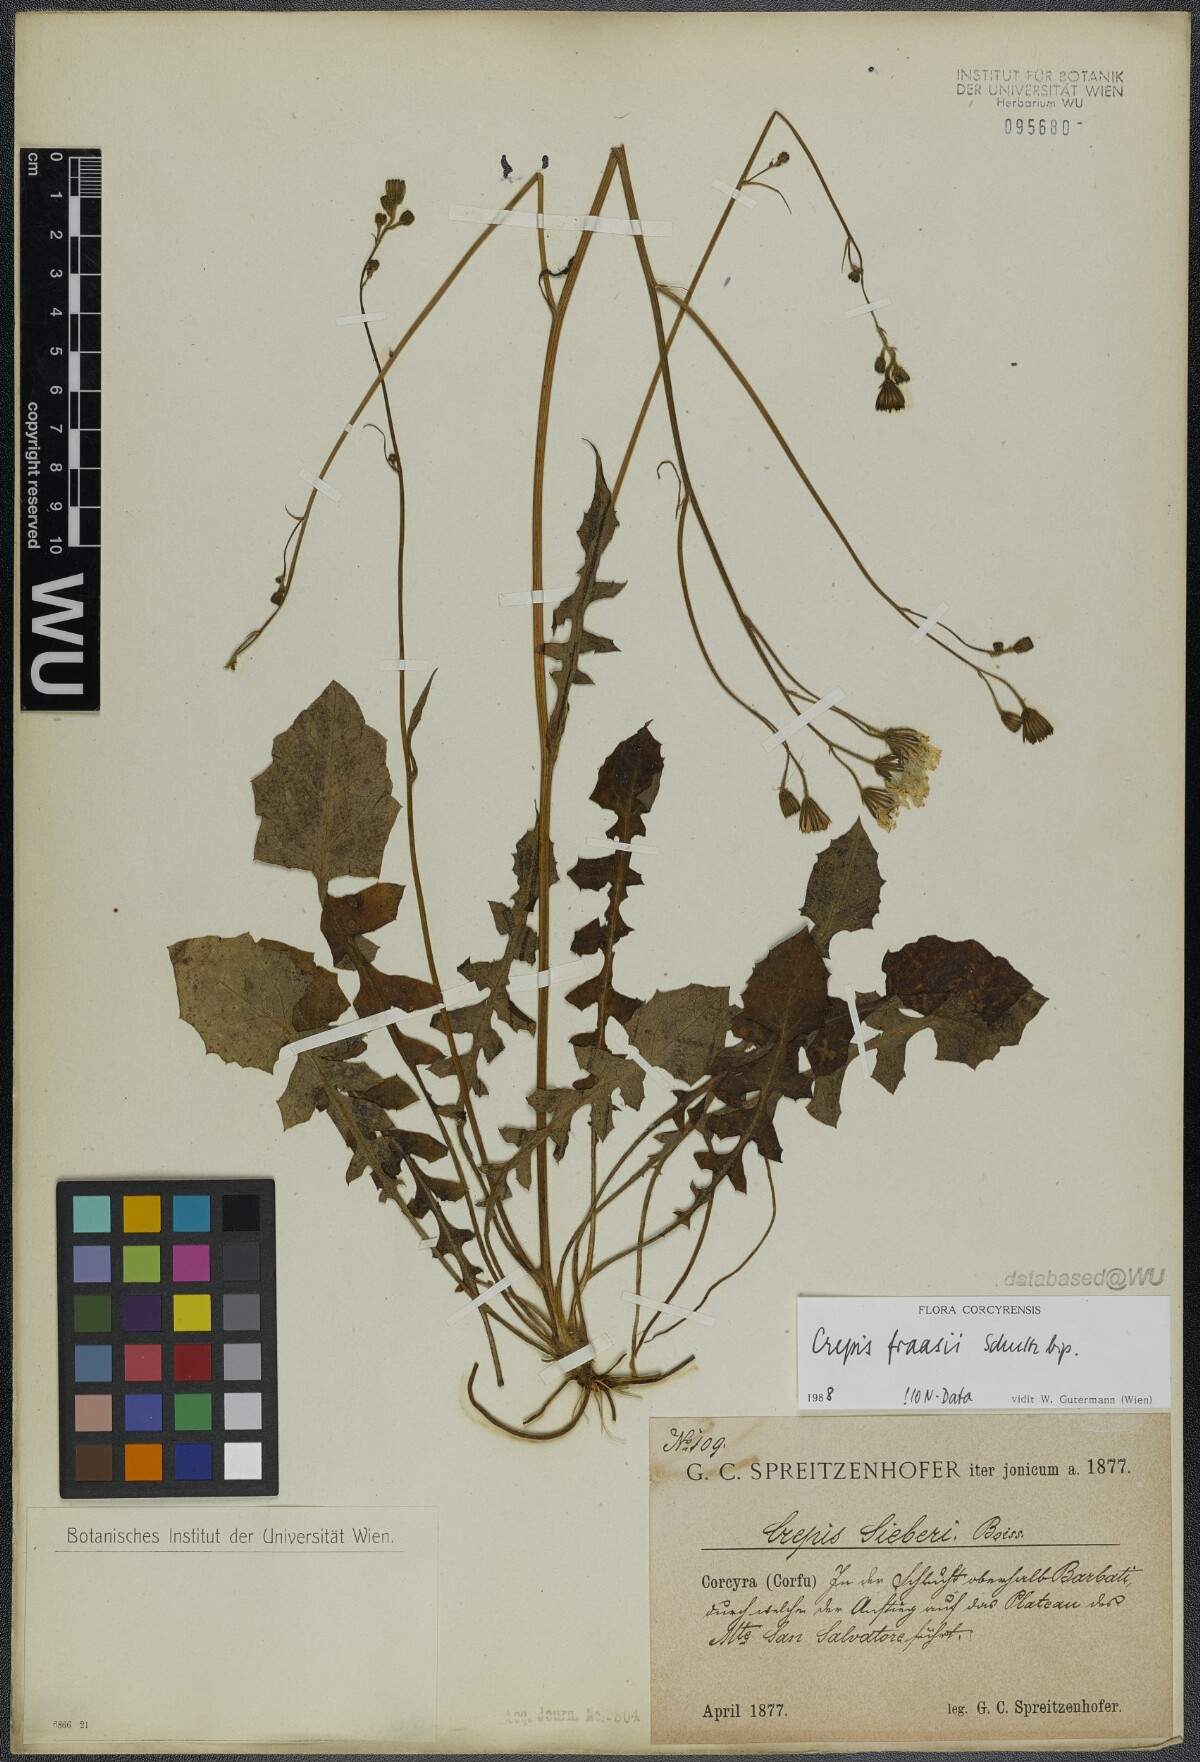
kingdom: Plantae
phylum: Tracheophyta
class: Magnoliopsida
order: Asterales
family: Asteraceae
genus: Crepis
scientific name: Crepis fraasii
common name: Hawk's-beard
